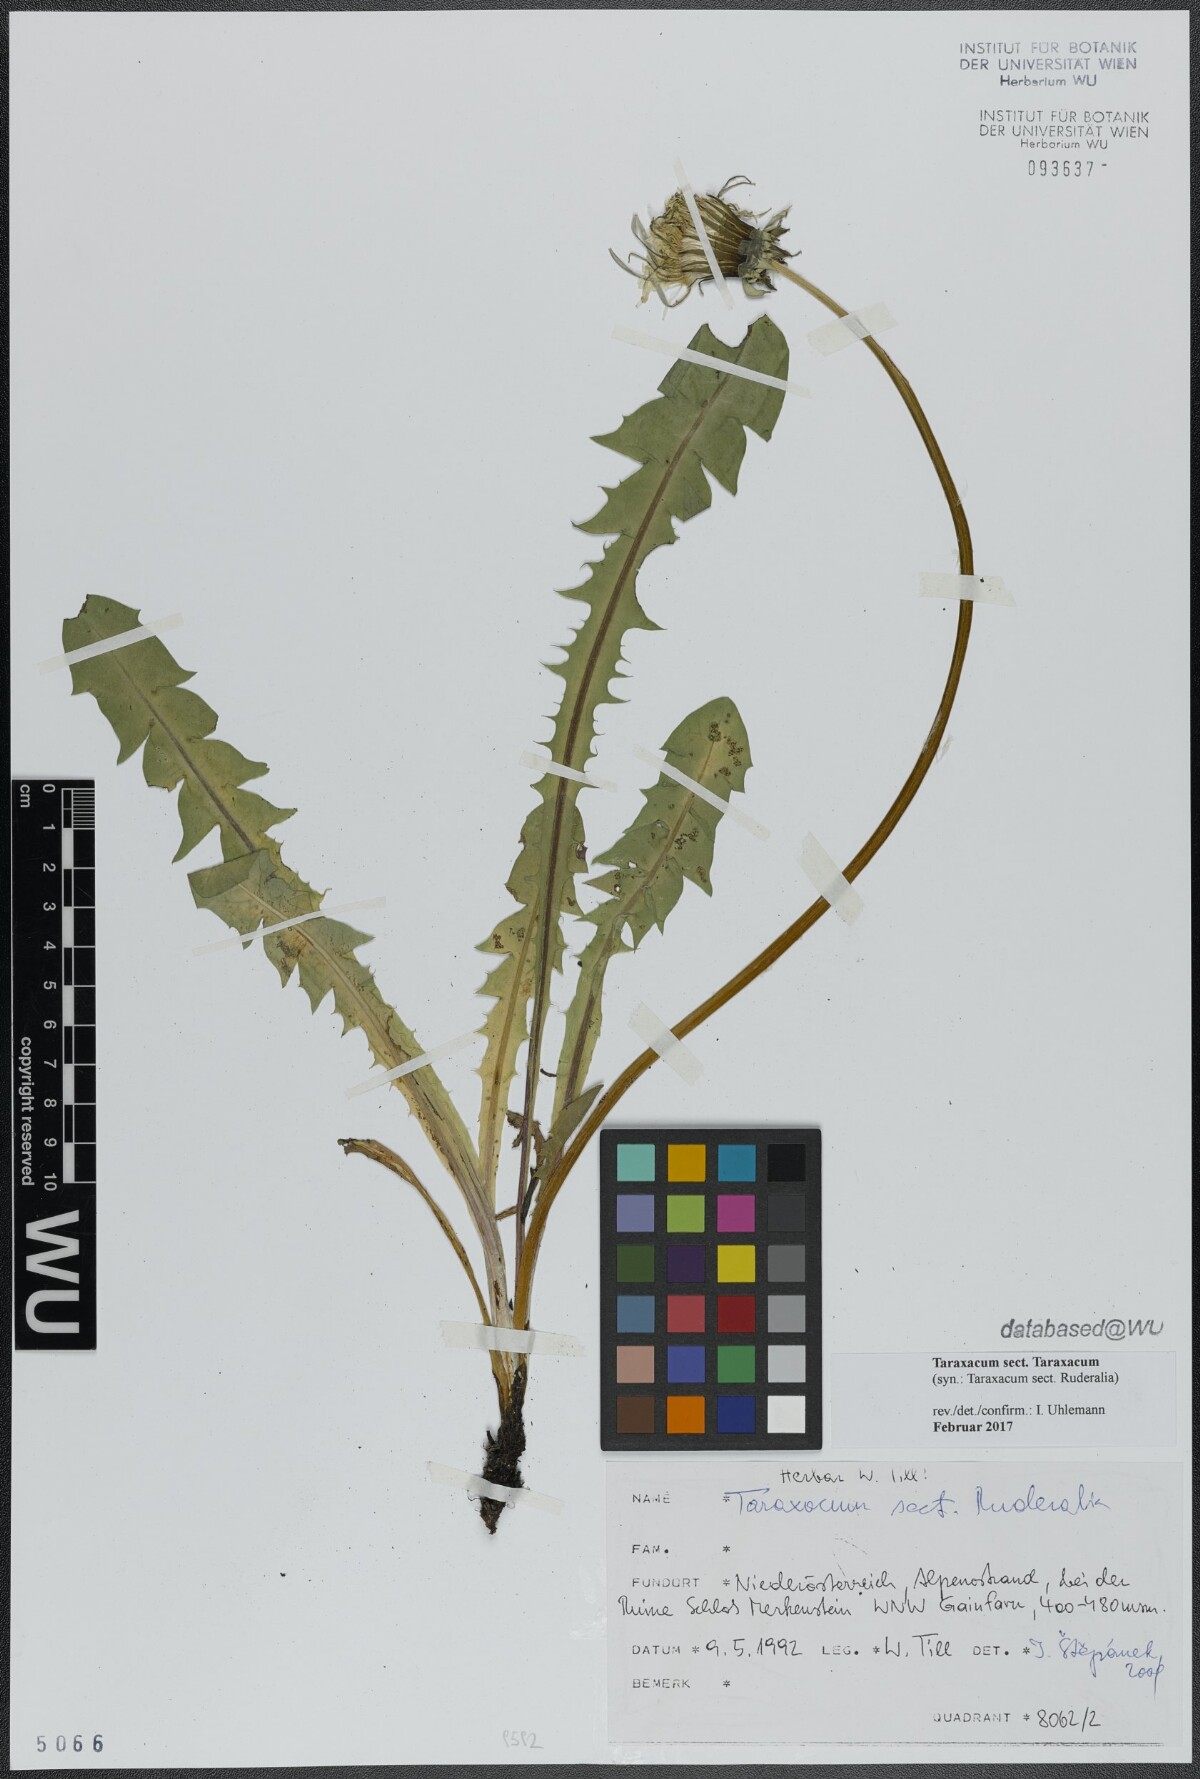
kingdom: Plantae
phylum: Tracheophyta
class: Magnoliopsida
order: Asterales
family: Asteraceae
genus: Taraxacum
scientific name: Taraxacum
